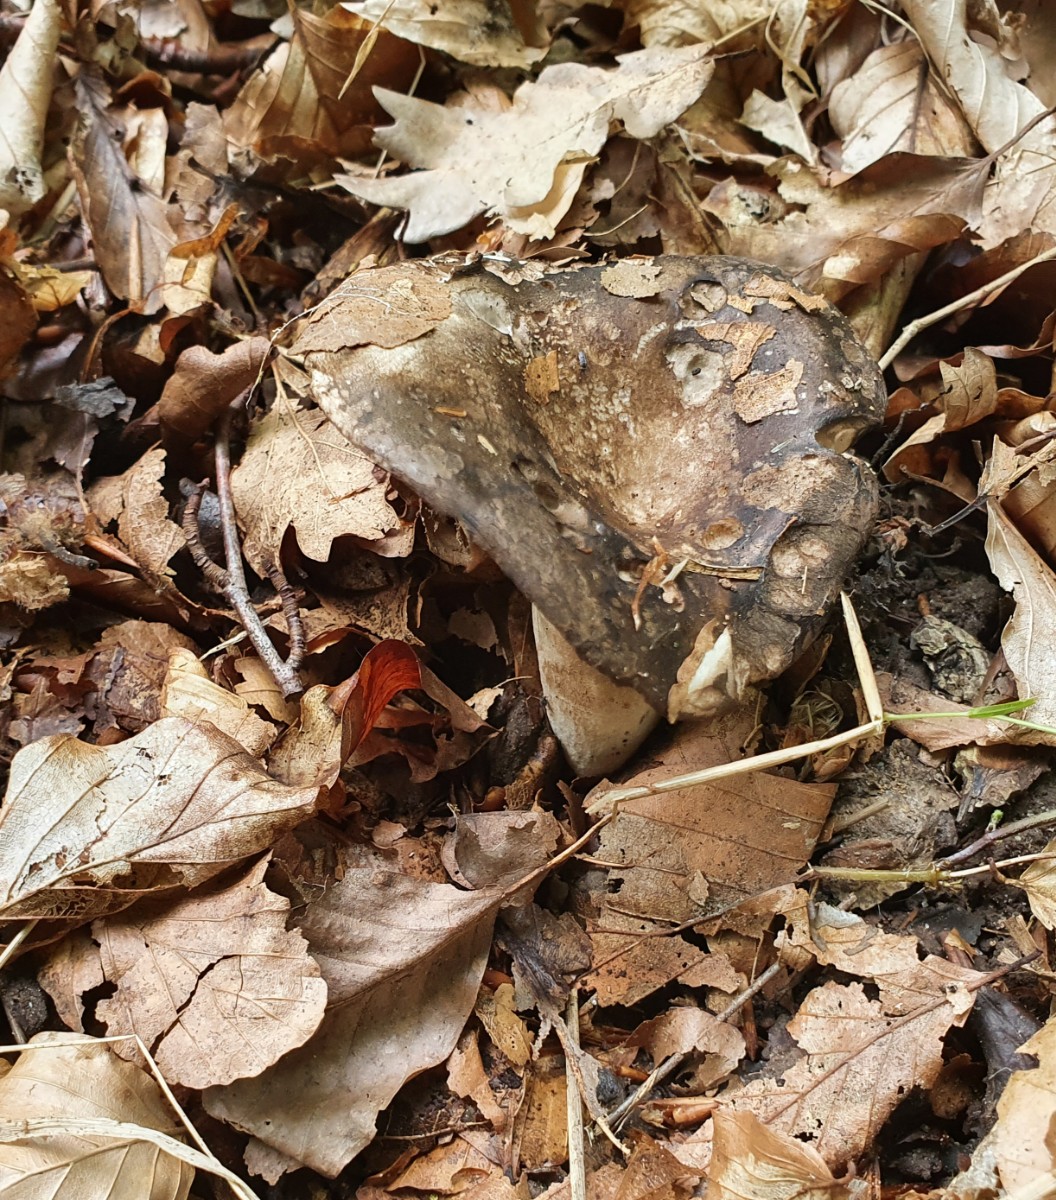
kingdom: Fungi
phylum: Basidiomycota
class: Agaricomycetes
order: Russulales
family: Russulaceae
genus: Russula
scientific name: Russula
